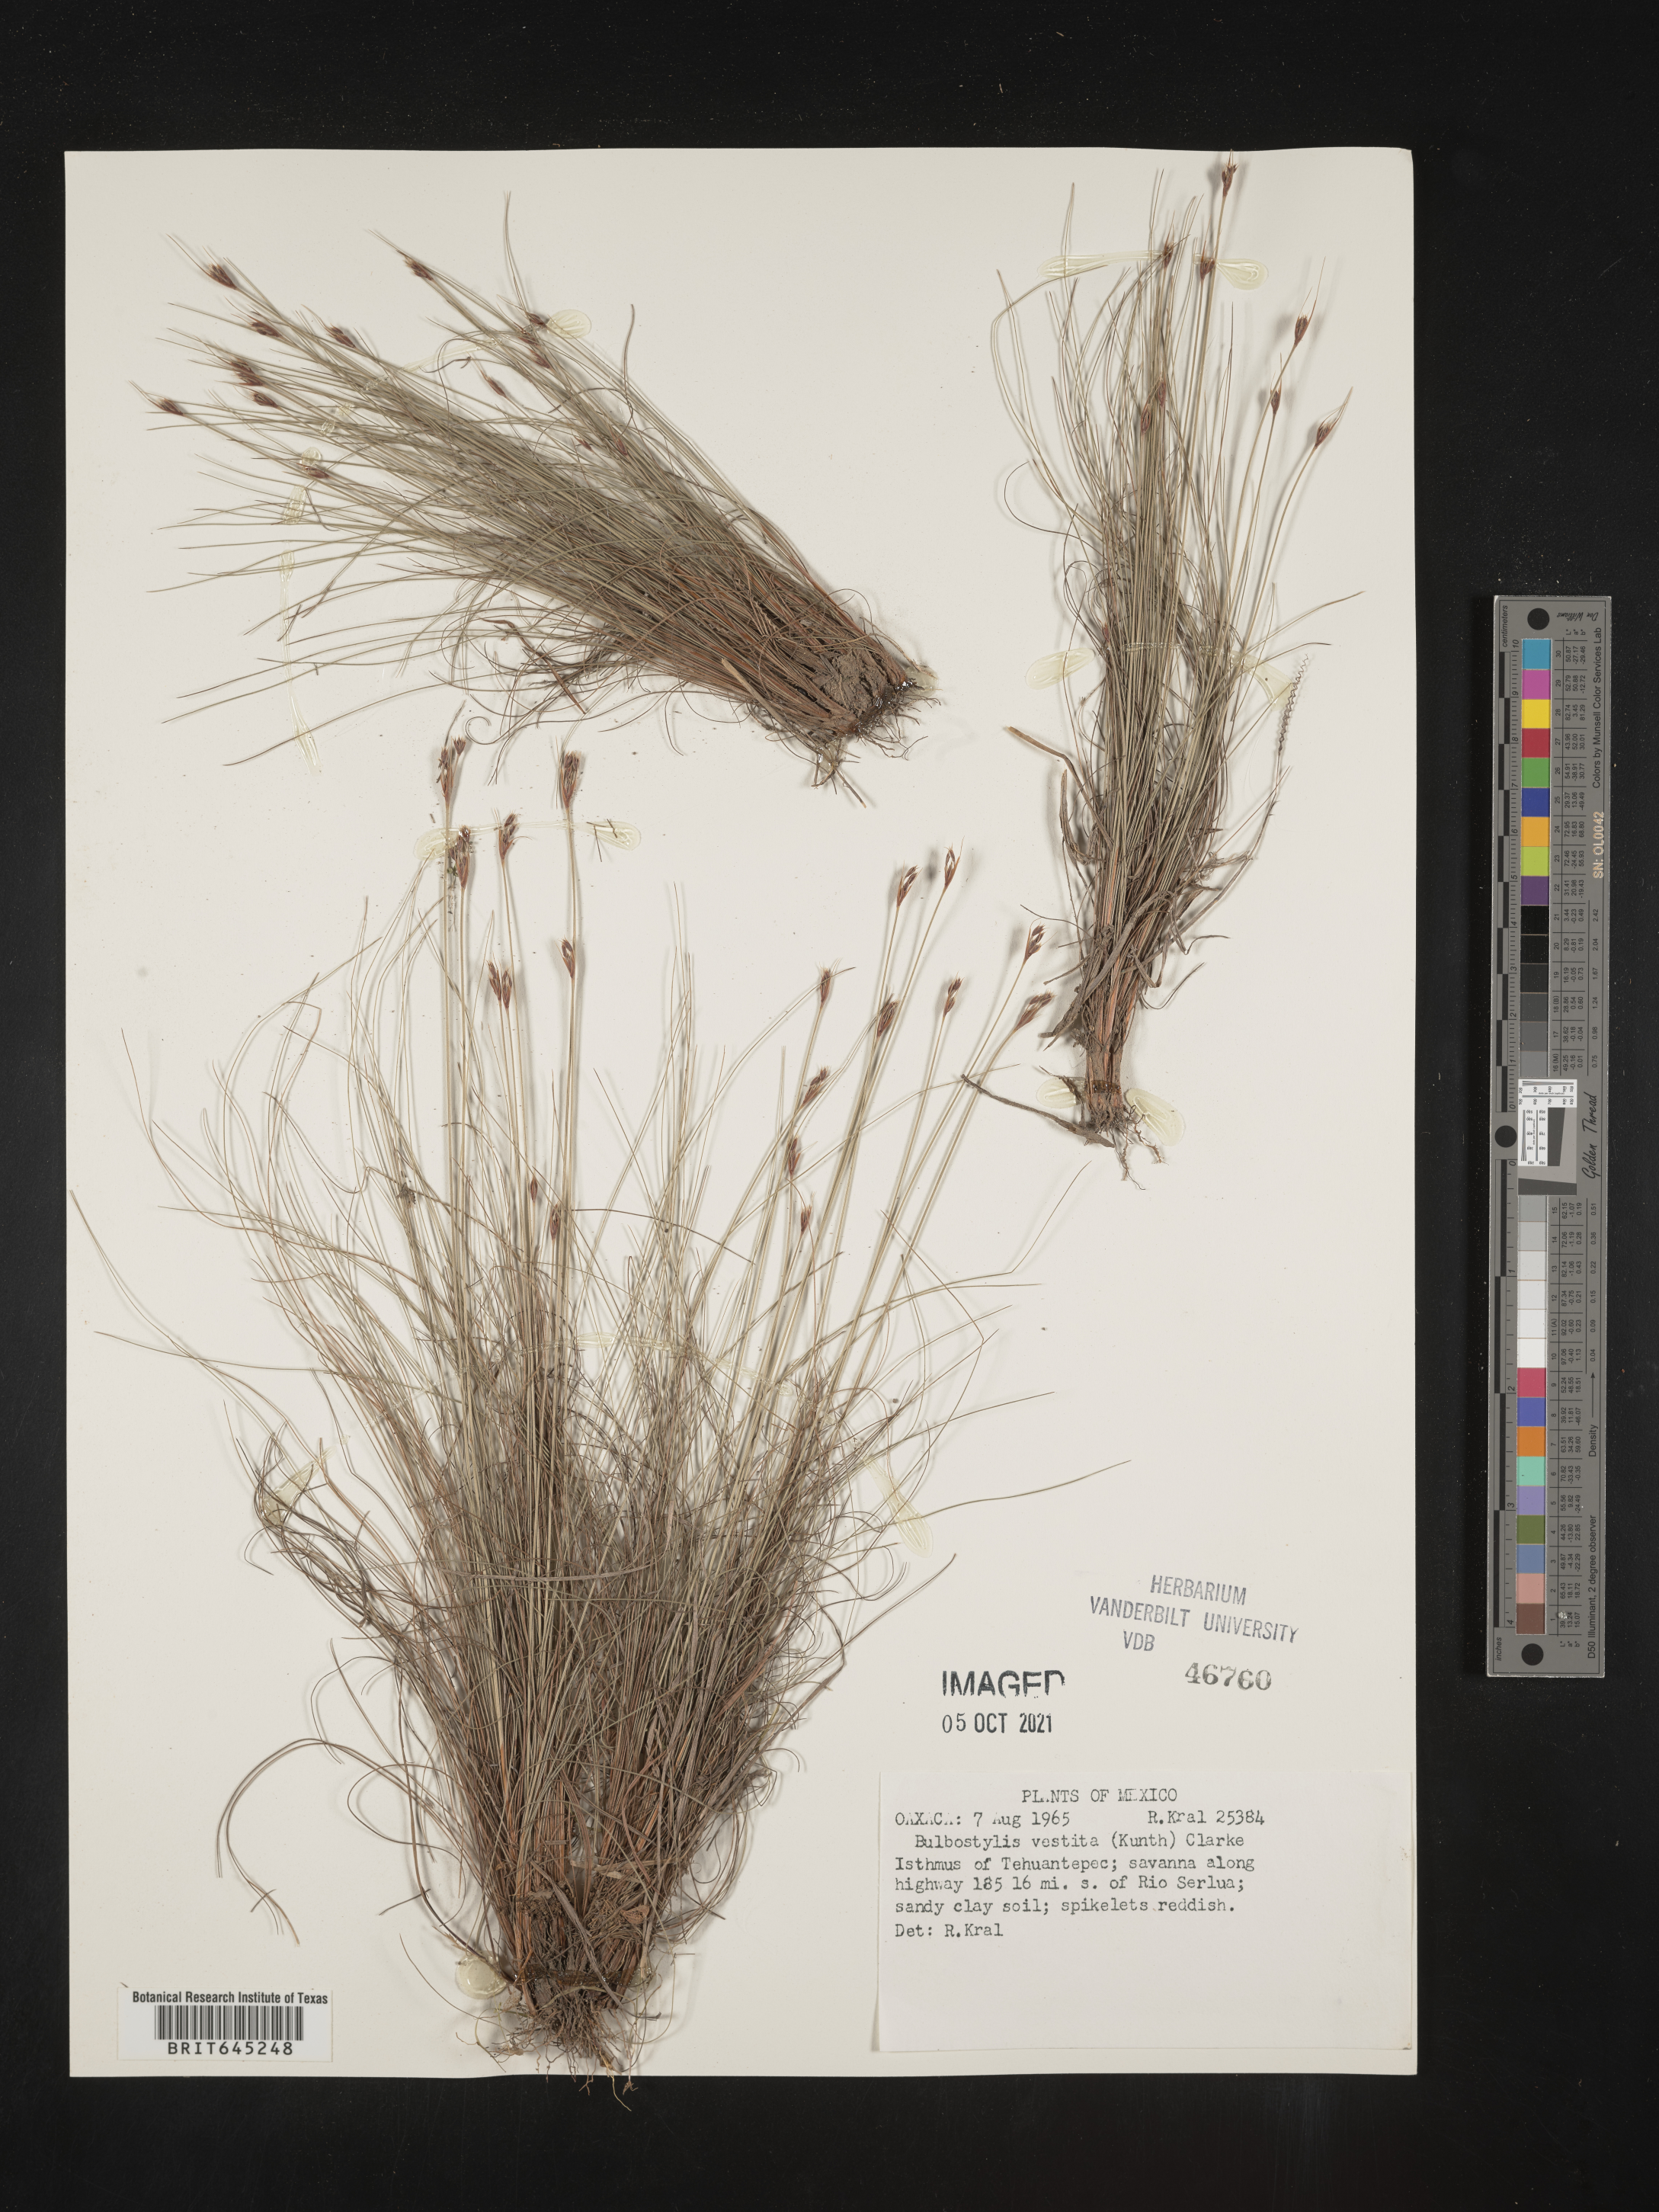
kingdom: Plantae
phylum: Tracheophyta
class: Liliopsida
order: Poales
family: Cyperaceae
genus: Bulbostylis
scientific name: Bulbostylis vestita
